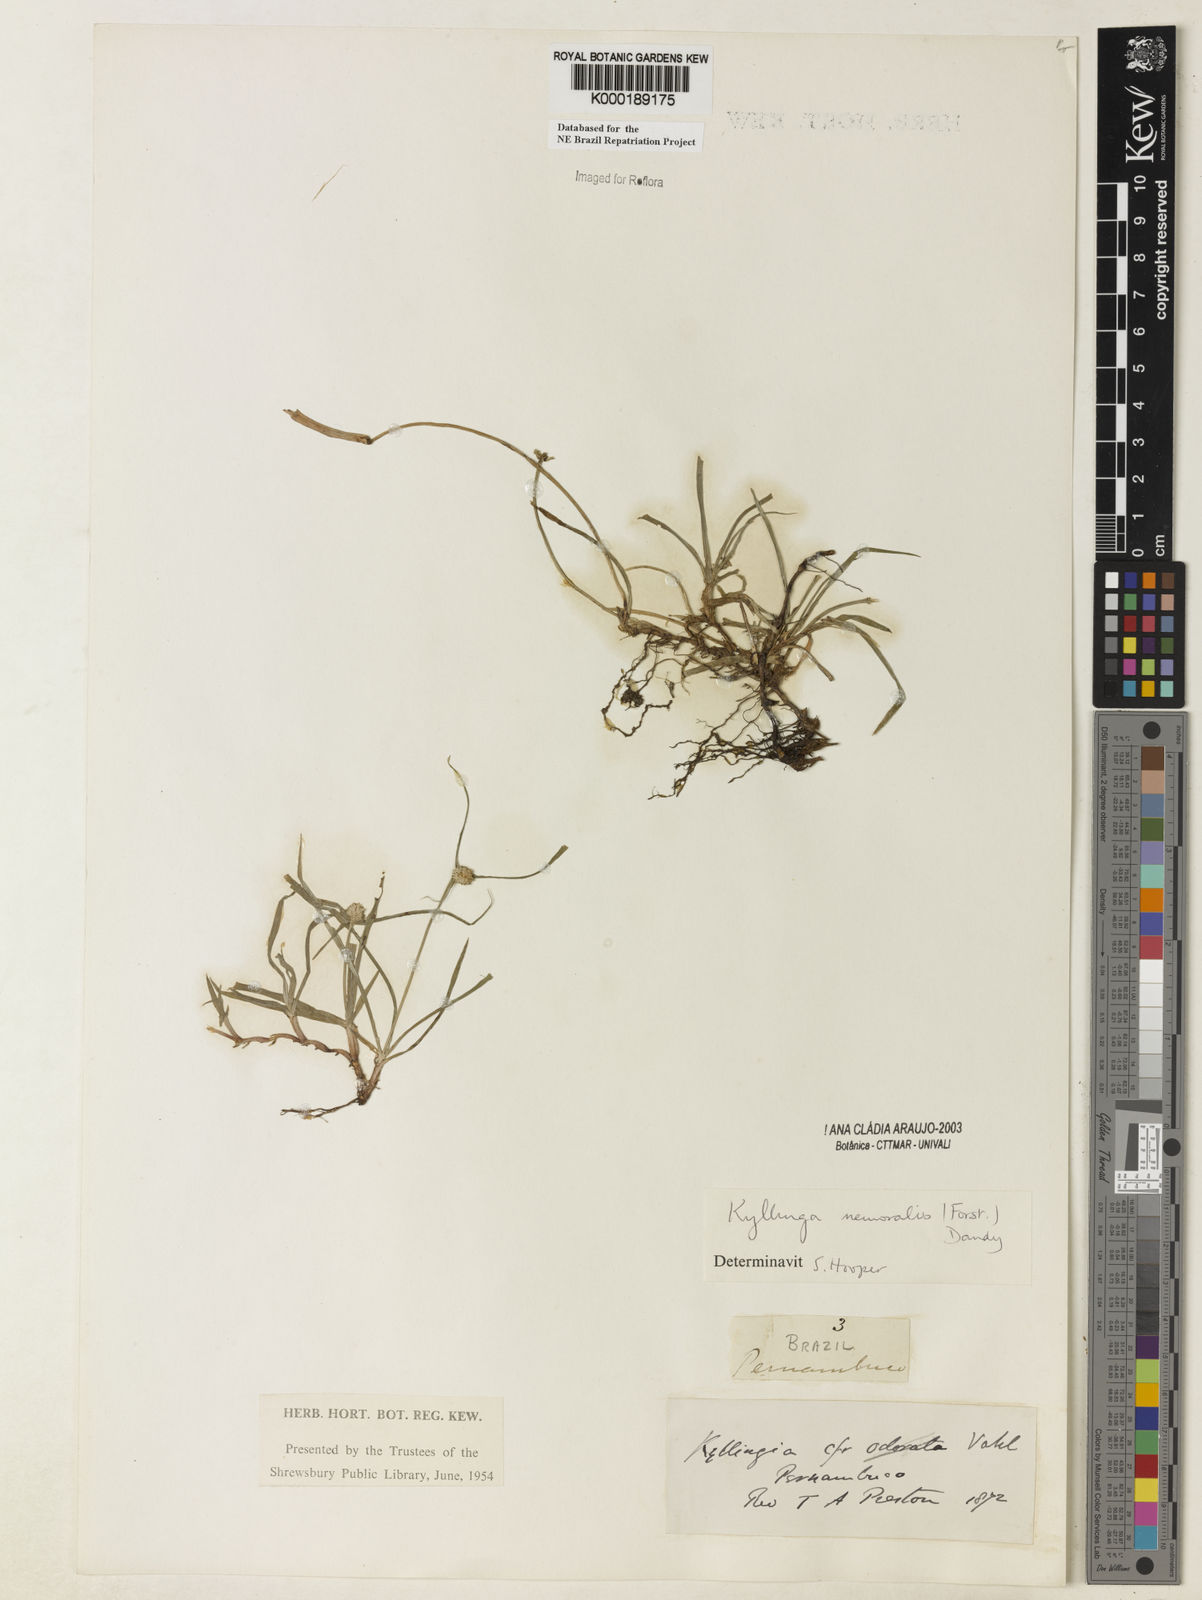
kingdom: Plantae
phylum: Tracheophyta
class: Liliopsida
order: Poales
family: Cyperaceae
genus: Cyperus
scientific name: Cyperus mindorensis
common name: Flatsedge
